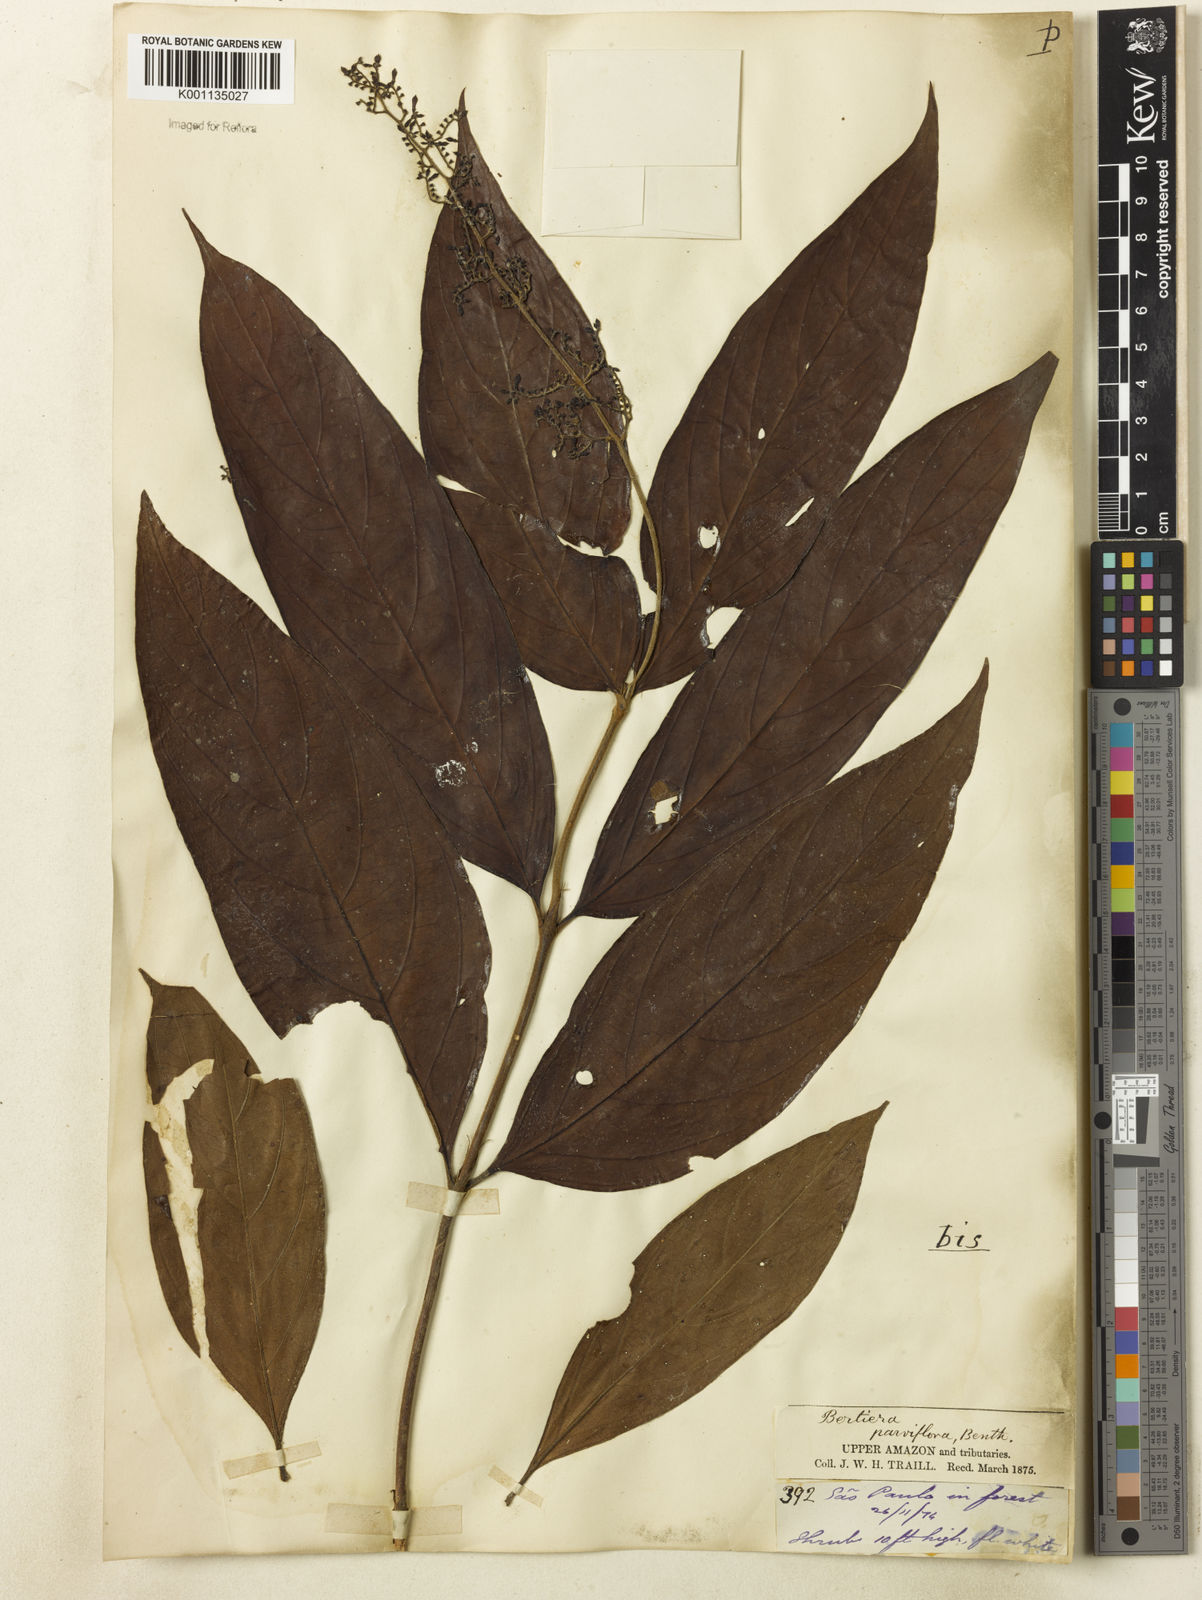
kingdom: Plantae
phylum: Tracheophyta
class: Magnoliopsida
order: Gentianales
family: Rubiaceae
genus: Bertiera
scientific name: Bertiera parviflora
